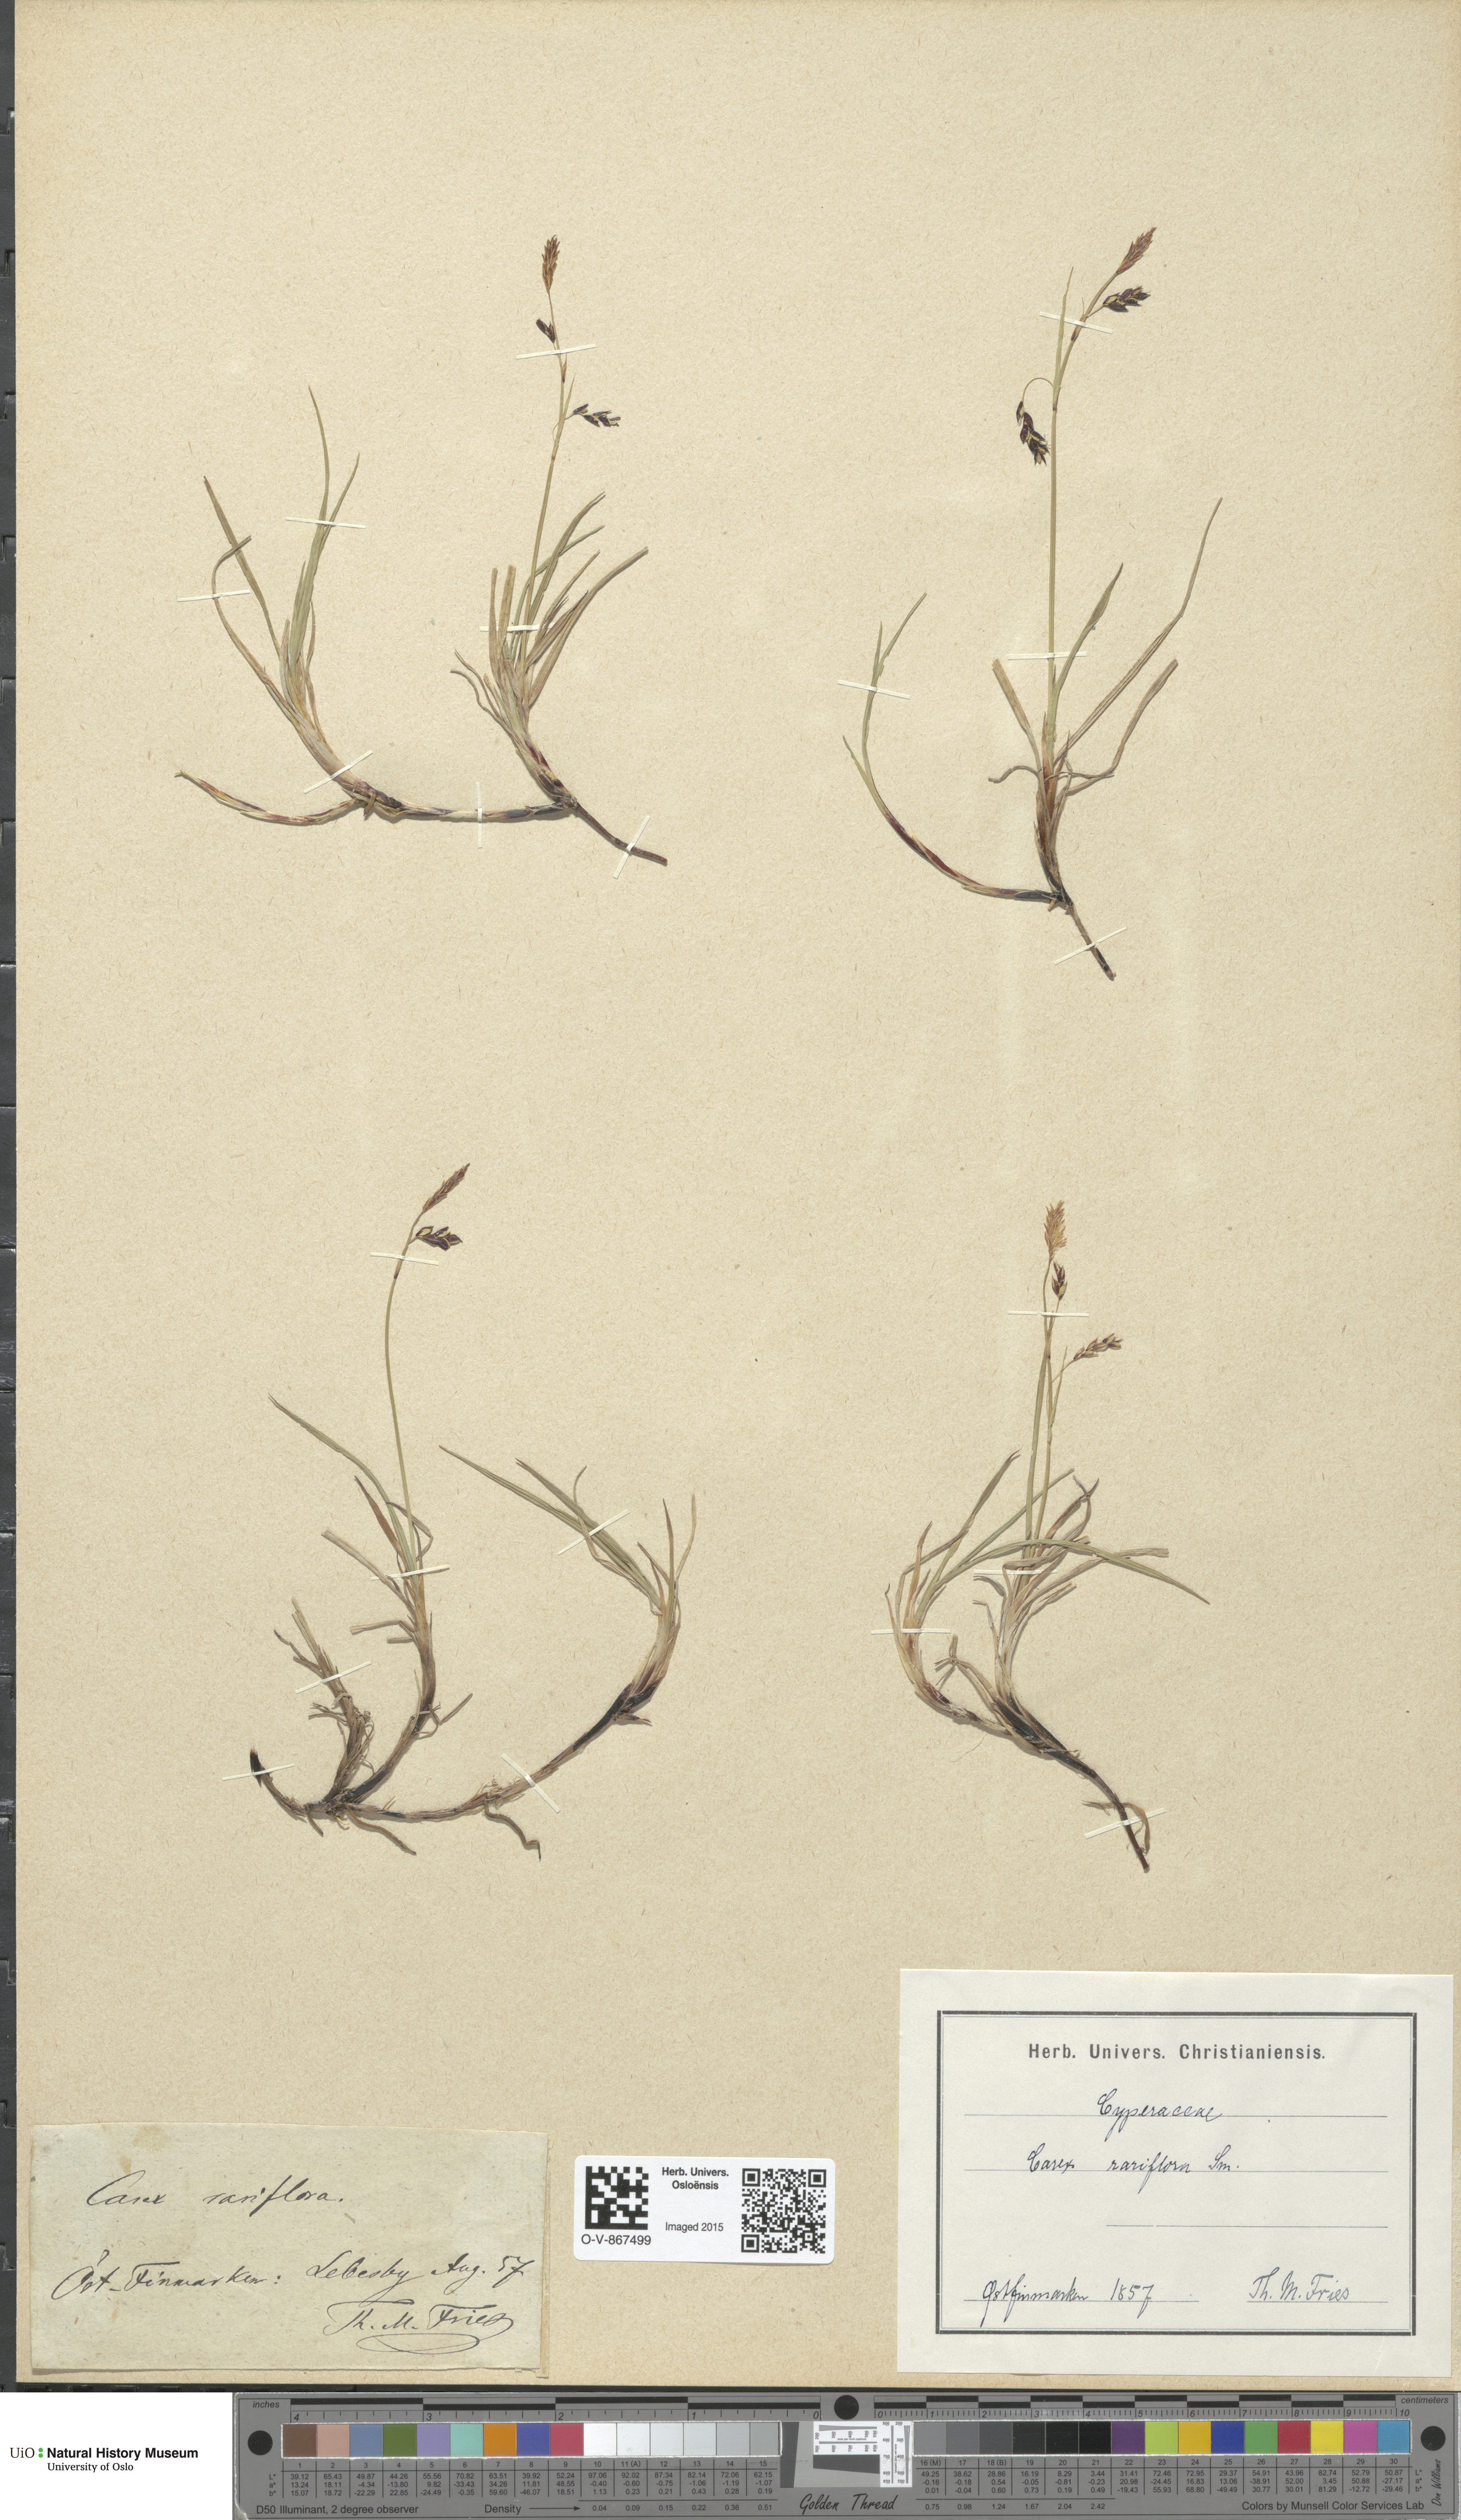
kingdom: Plantae
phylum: Tracheophyta
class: Liliopsida
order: Poales
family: Cyperaceae
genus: Carex
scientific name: Carex rariflora
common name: Loose-flowered alpine sedge
